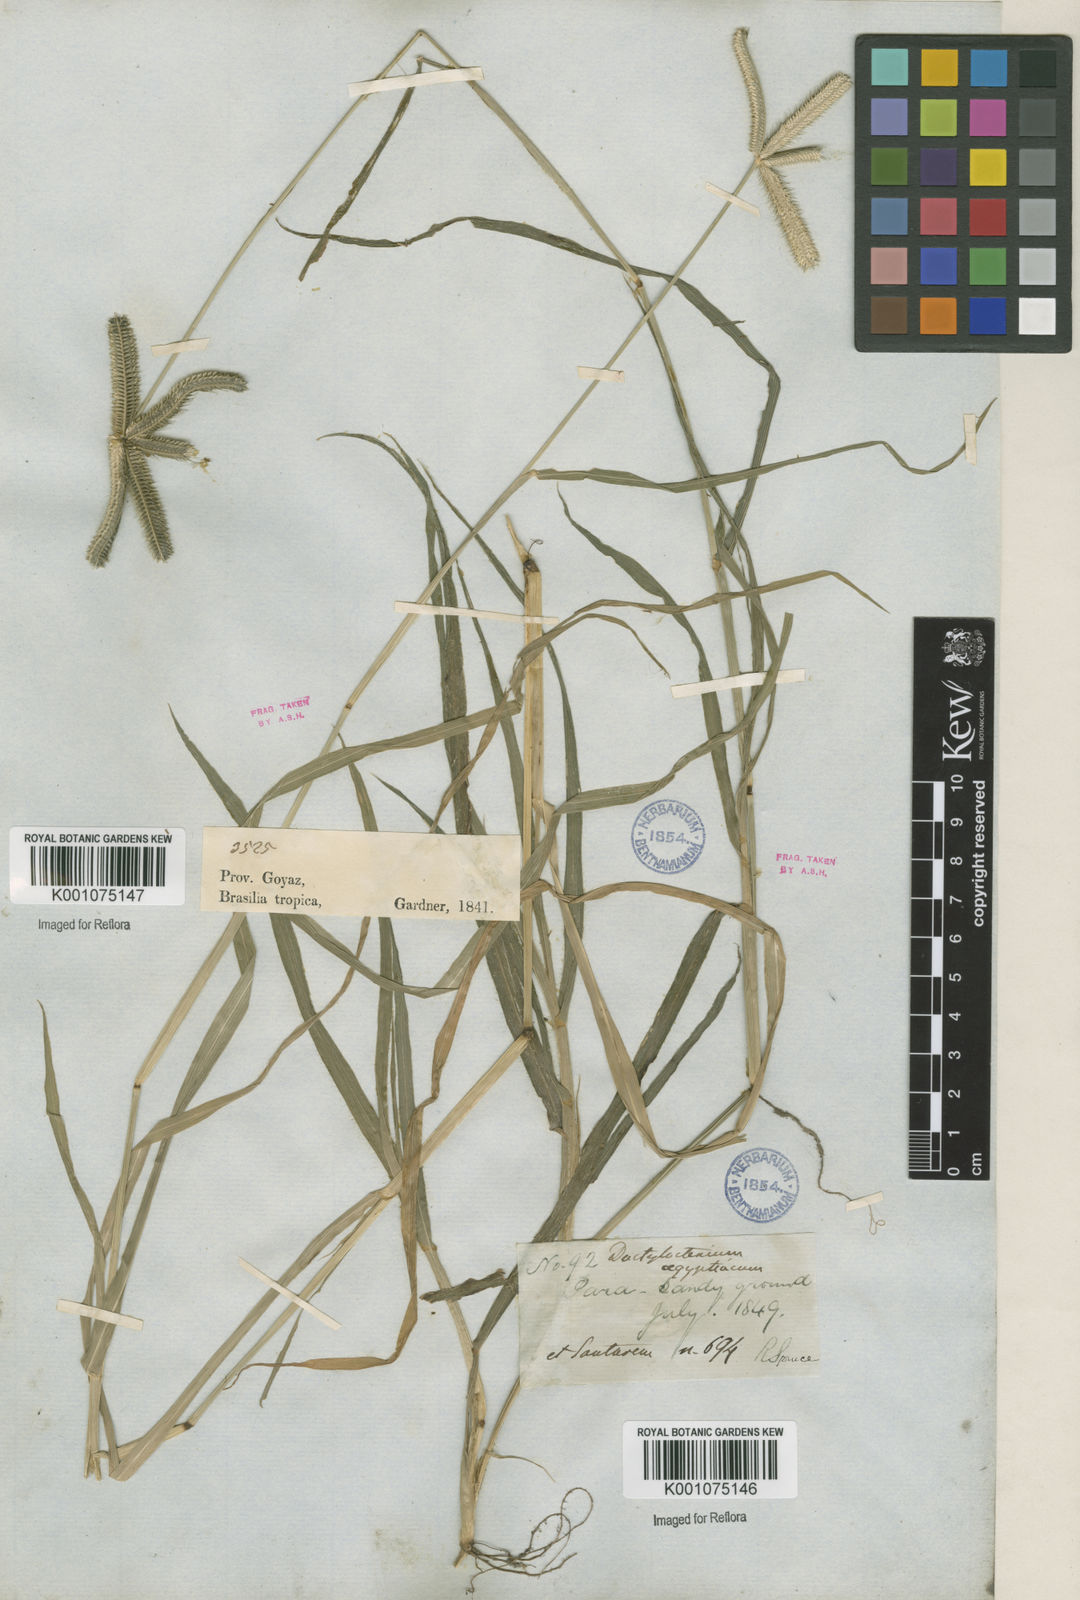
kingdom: Plantae
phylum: Tracheophyta
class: Liliopsida
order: Poales
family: Poaceae
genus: Dactyloctenium
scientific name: Dactyloctenium aegyptium
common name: Egyptian grass
